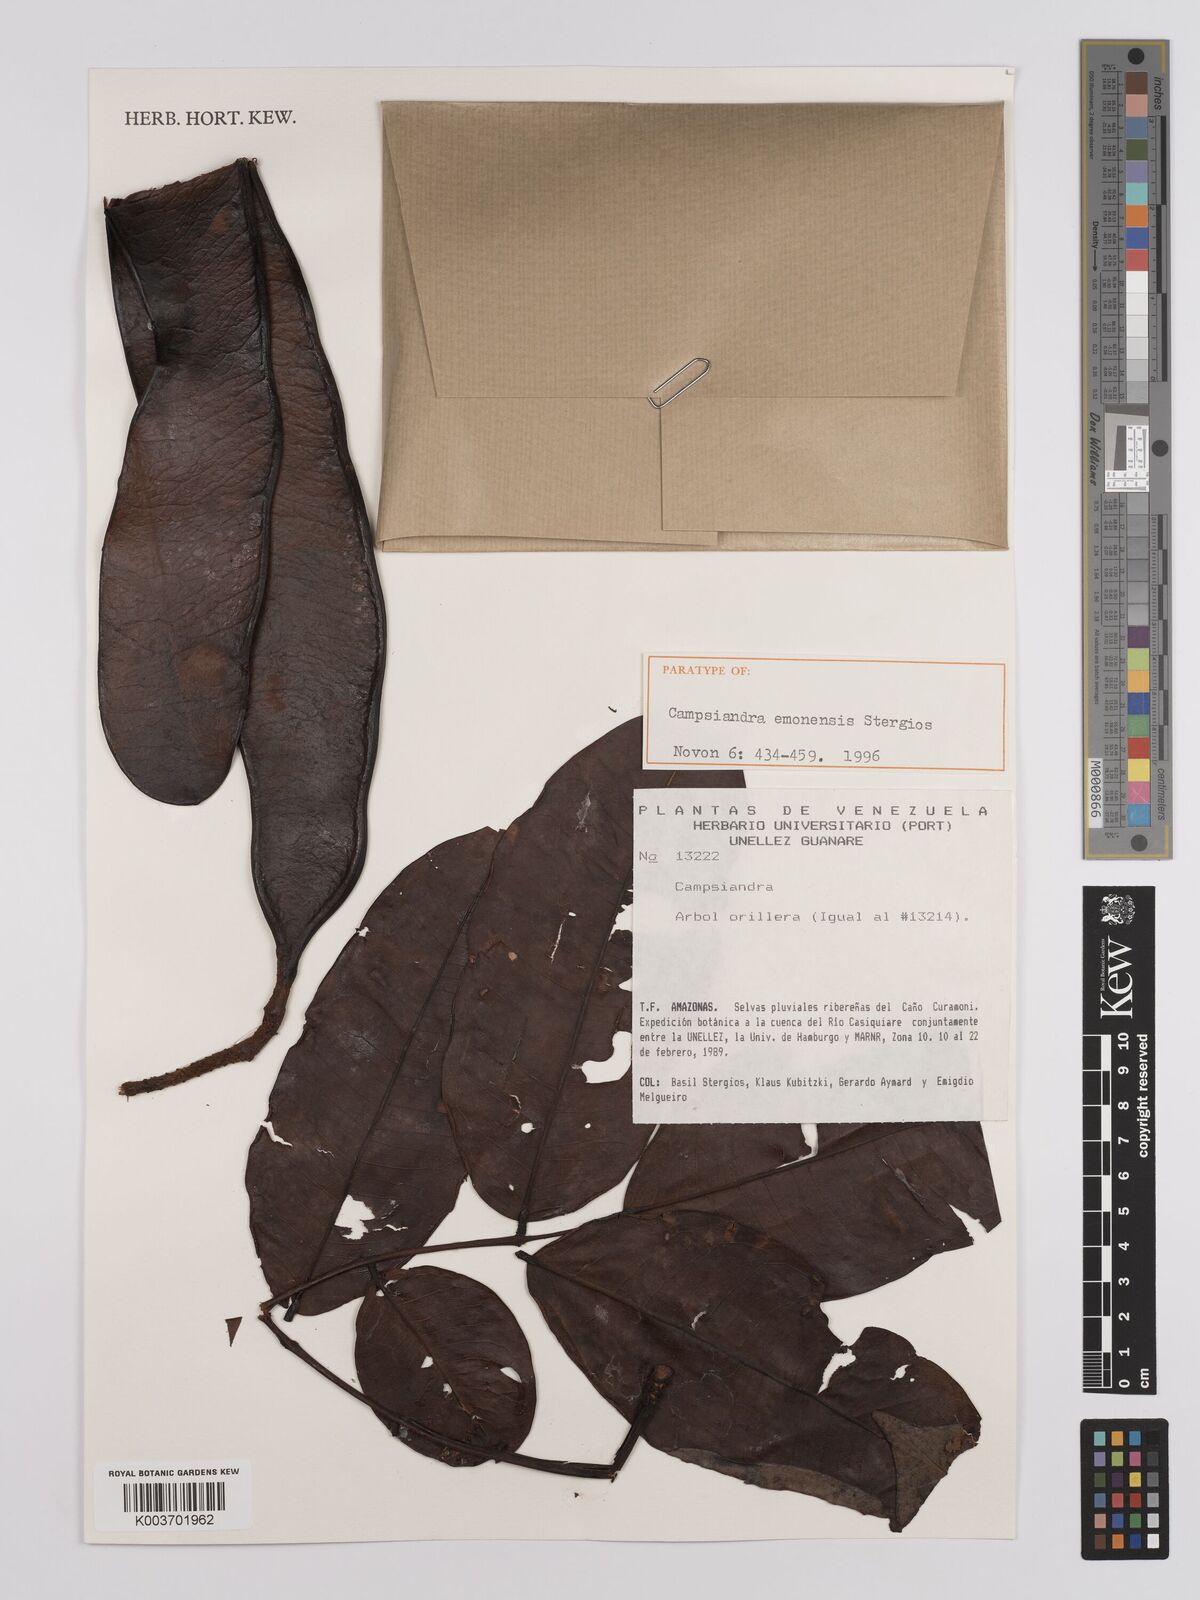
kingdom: Plantae
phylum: Tracheophyta
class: Magnoliopsida
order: Fabales
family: Fabaceae
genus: Campsiandra
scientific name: Campsiandra emonensis
